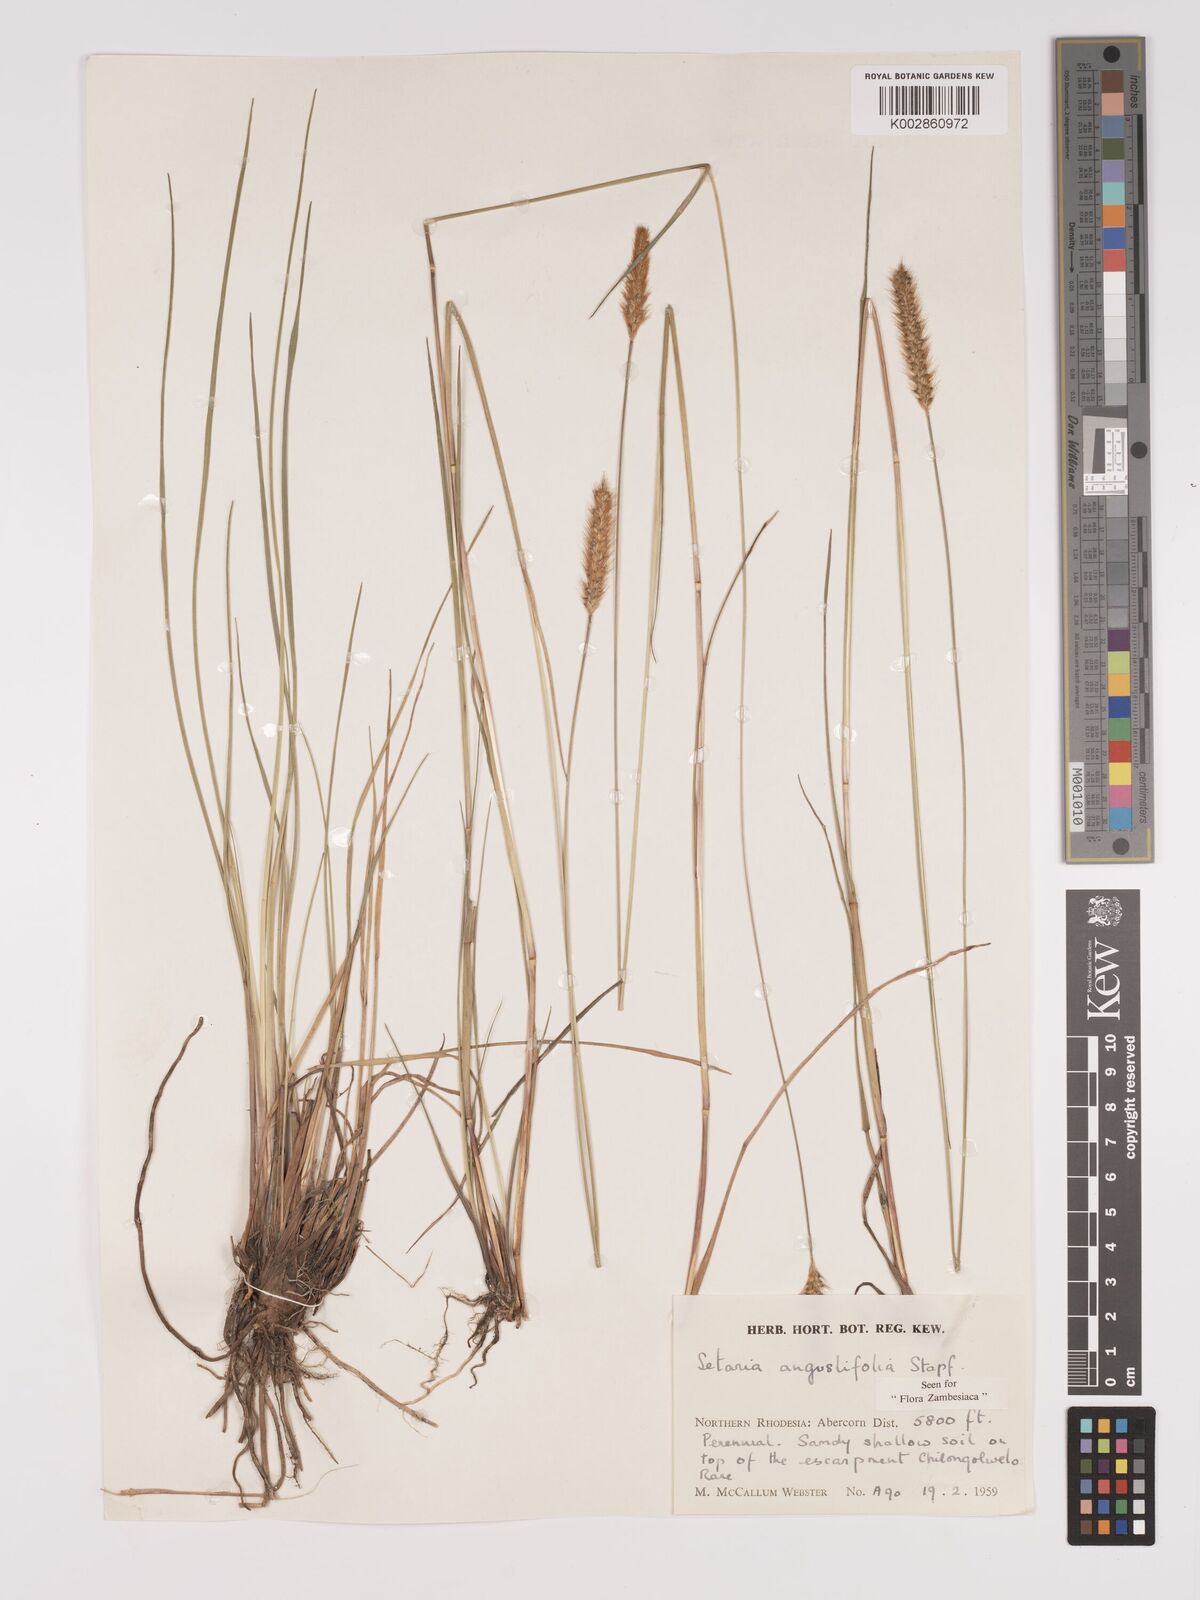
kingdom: Plantae
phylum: Tracheophyta
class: Liliopsida
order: Poales
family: Poaceae
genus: Setaria
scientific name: Setaria
